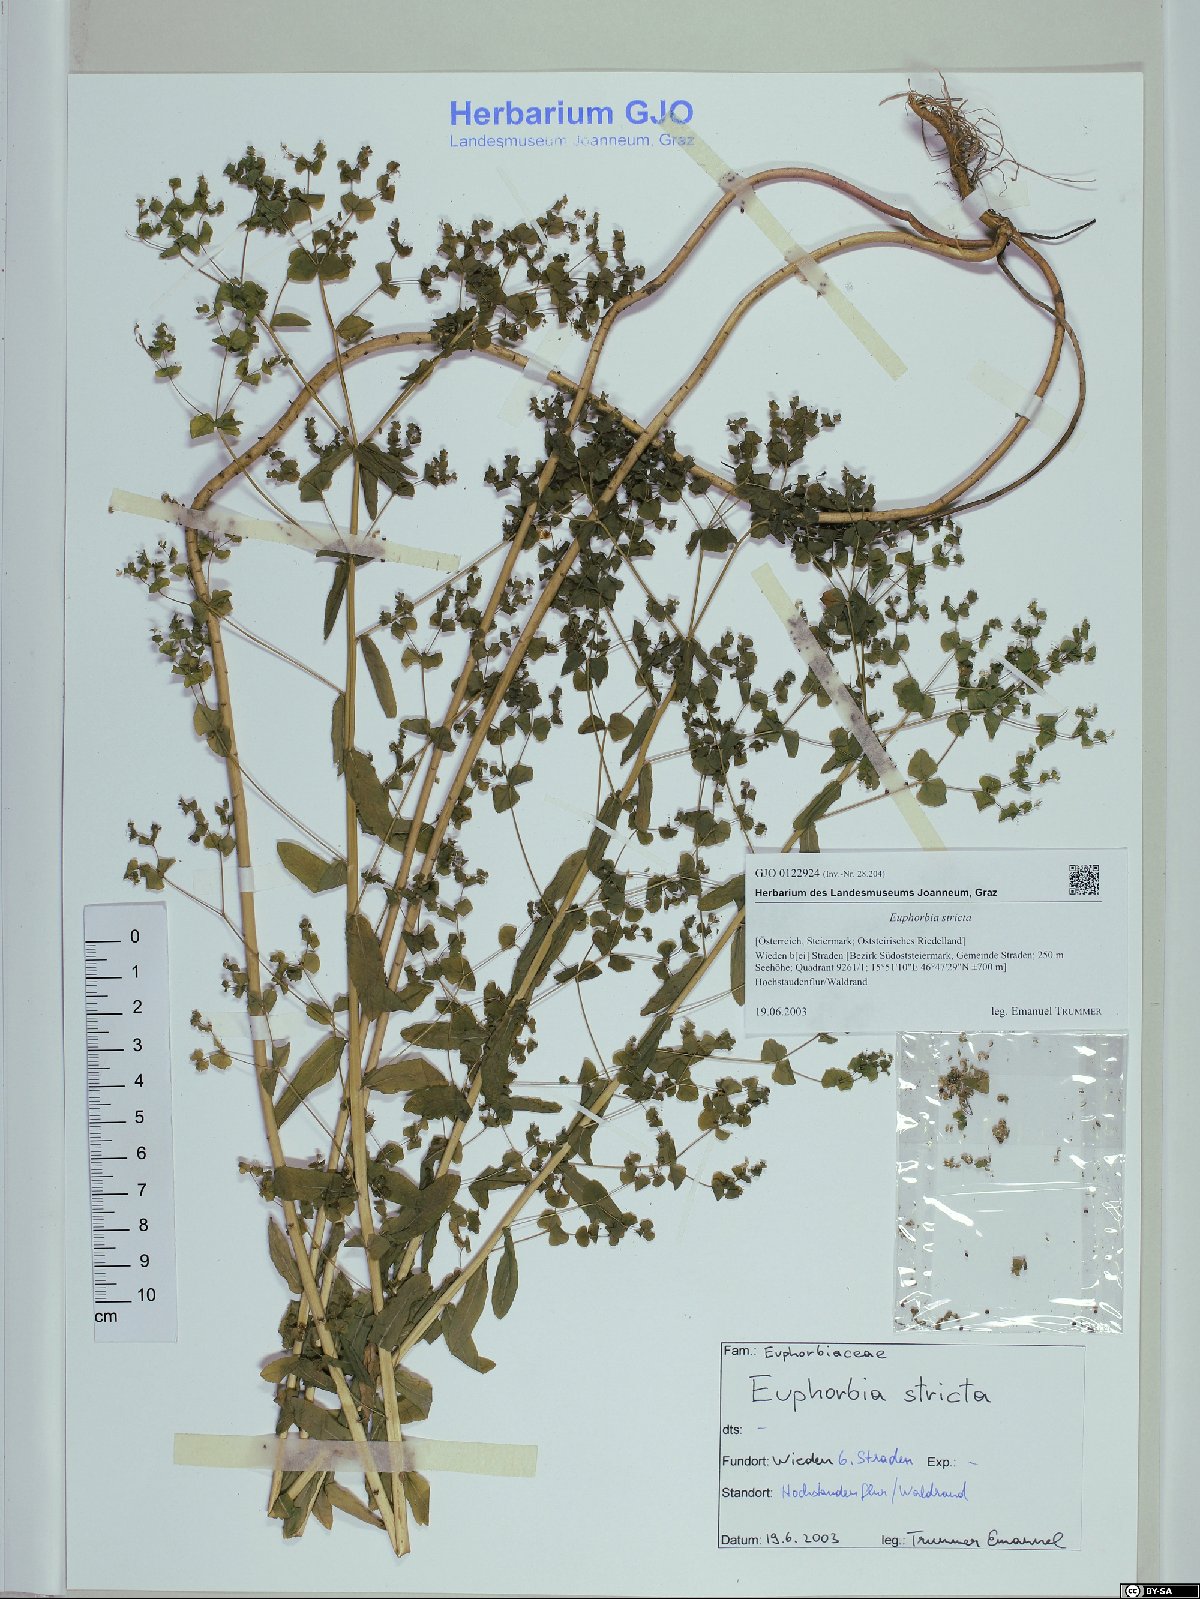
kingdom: Plantae
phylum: Tracheophyta
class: Magnoliopsida
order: Malpighiales
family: Euphorbiaceae
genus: Euphorbia
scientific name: Euphorbia stricta
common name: Upright spurge
